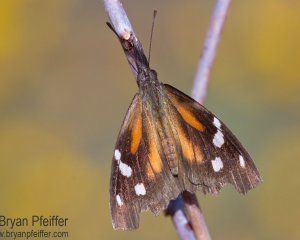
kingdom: Animalia
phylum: Arthropoda
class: Insecta
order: Lepidoptera
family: Nymphalidae
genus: Libytheana
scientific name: Libytheana carinenta
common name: American Snout
